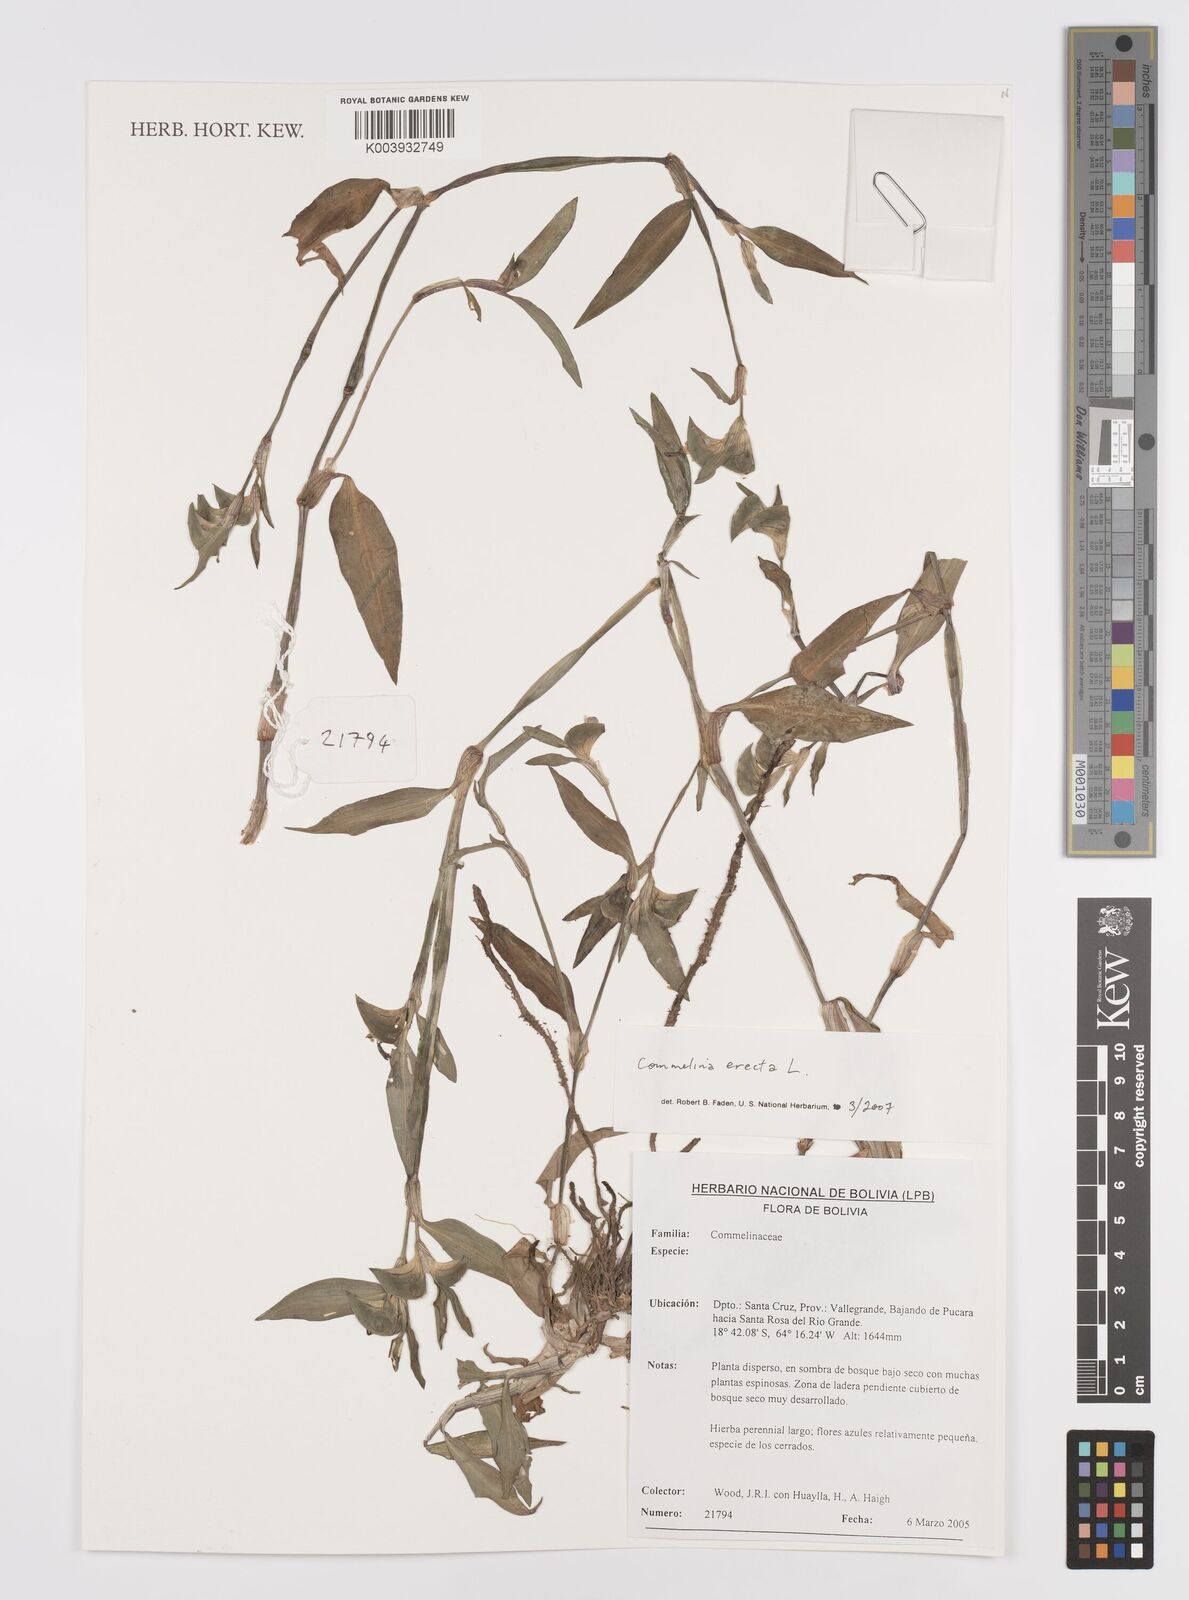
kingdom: Plantae
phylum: Tracheophyta
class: Liliopsida
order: Commelinales
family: Commelinaceae
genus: Commelina
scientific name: Commelina erecta
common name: Blousel blommetjie
